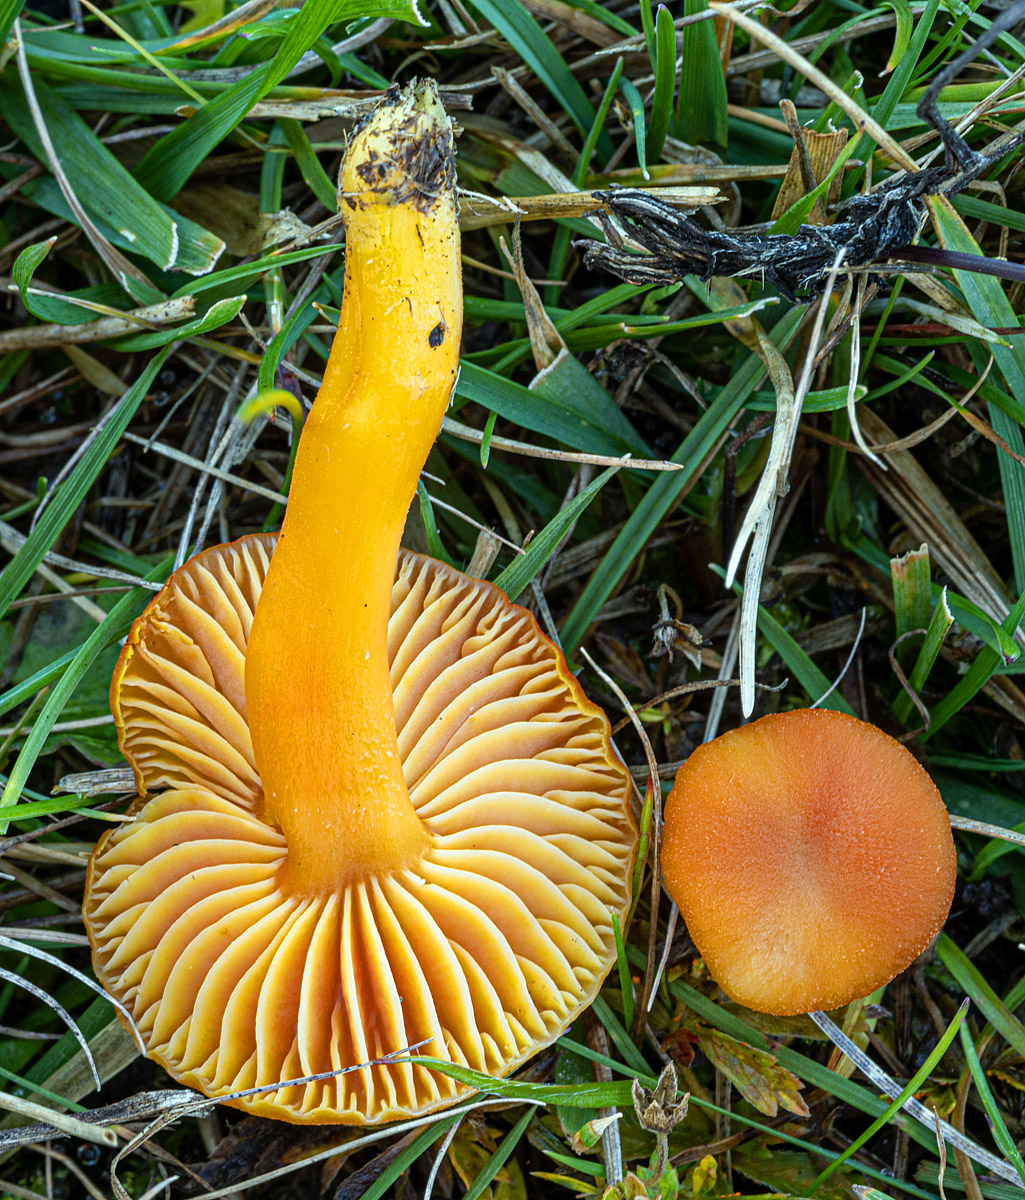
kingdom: Fungi
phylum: Basidiomycota
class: Agaricomycetes
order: Agaricales
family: Hygrophoraceae
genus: Hygrocybe
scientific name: Hygrocybe miniata
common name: mønje-vokshat
